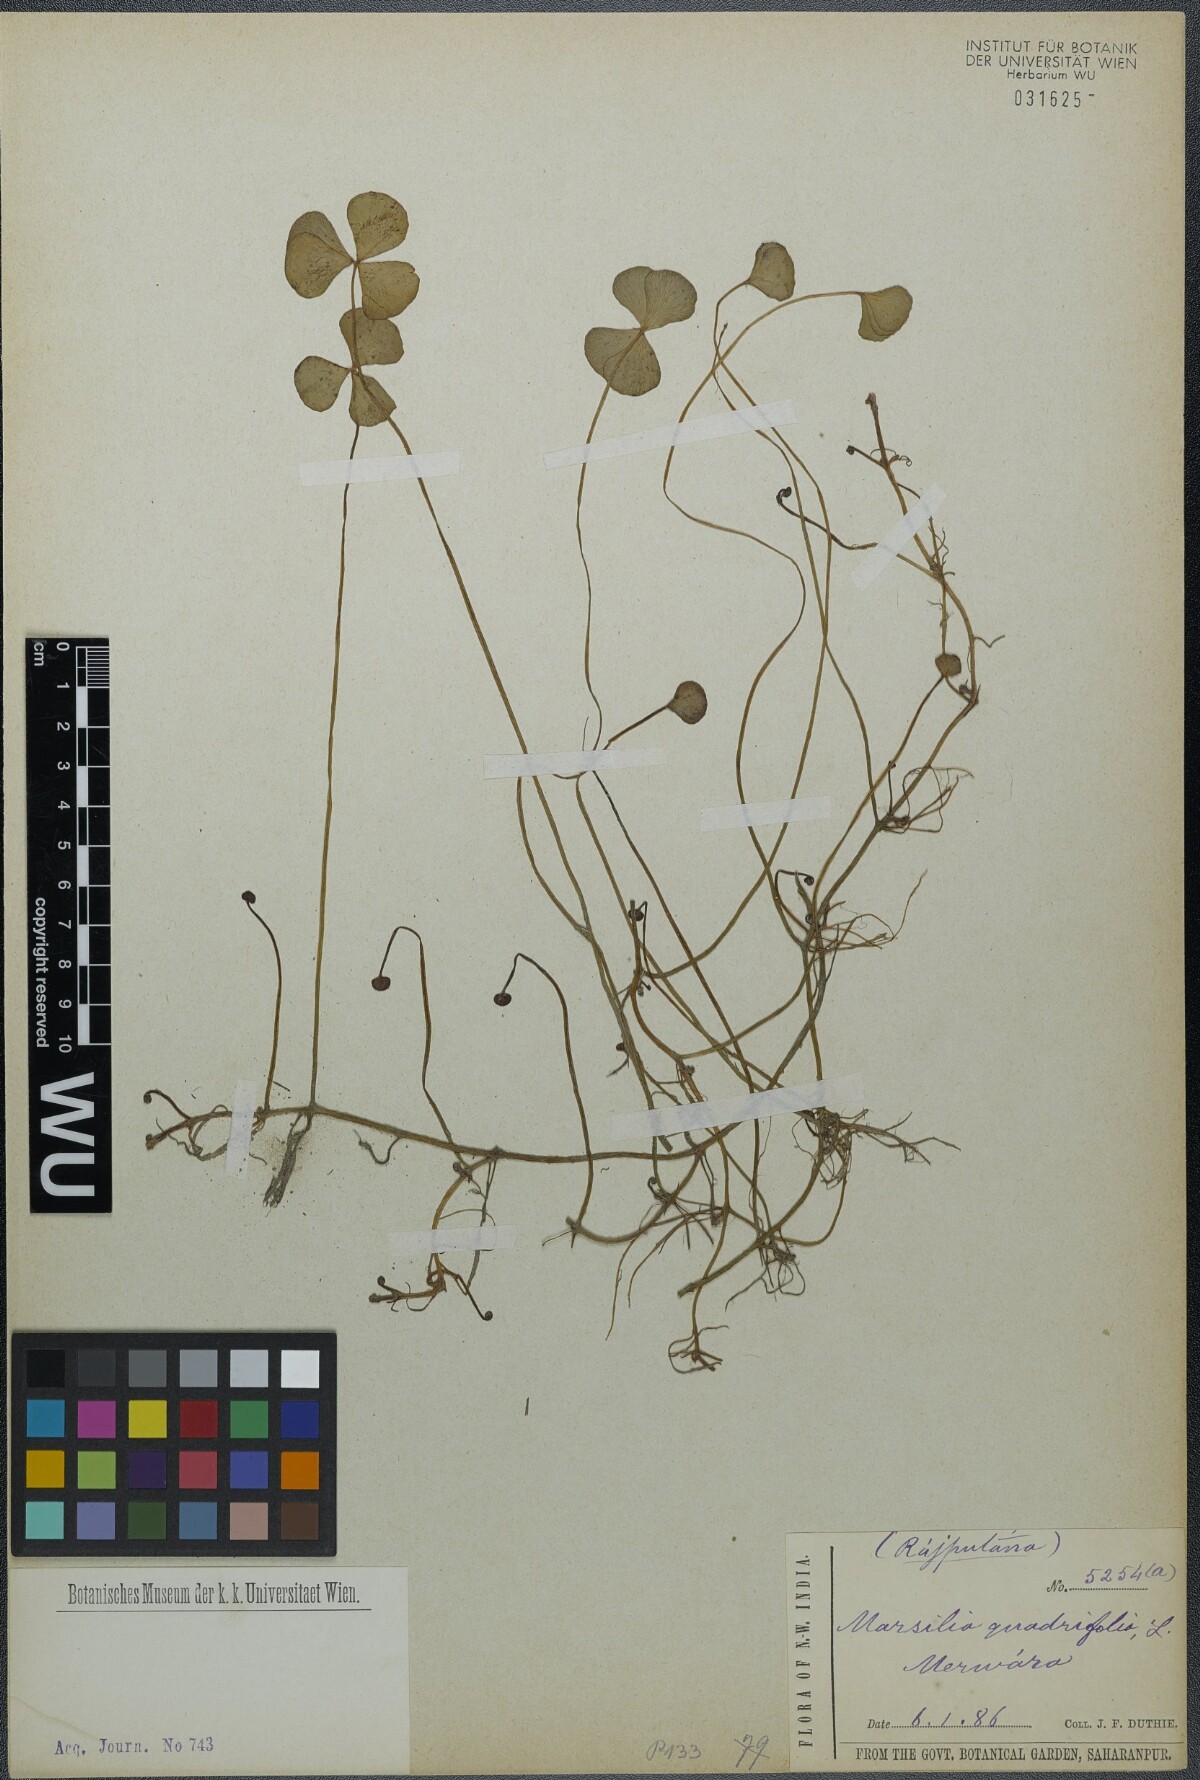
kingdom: Plantae
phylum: Tracheophyta
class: Polypodiopsida
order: Salviniales
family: Marsileaceae
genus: Marsilea
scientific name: Marsilea quadrifolia
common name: Water shamrock
